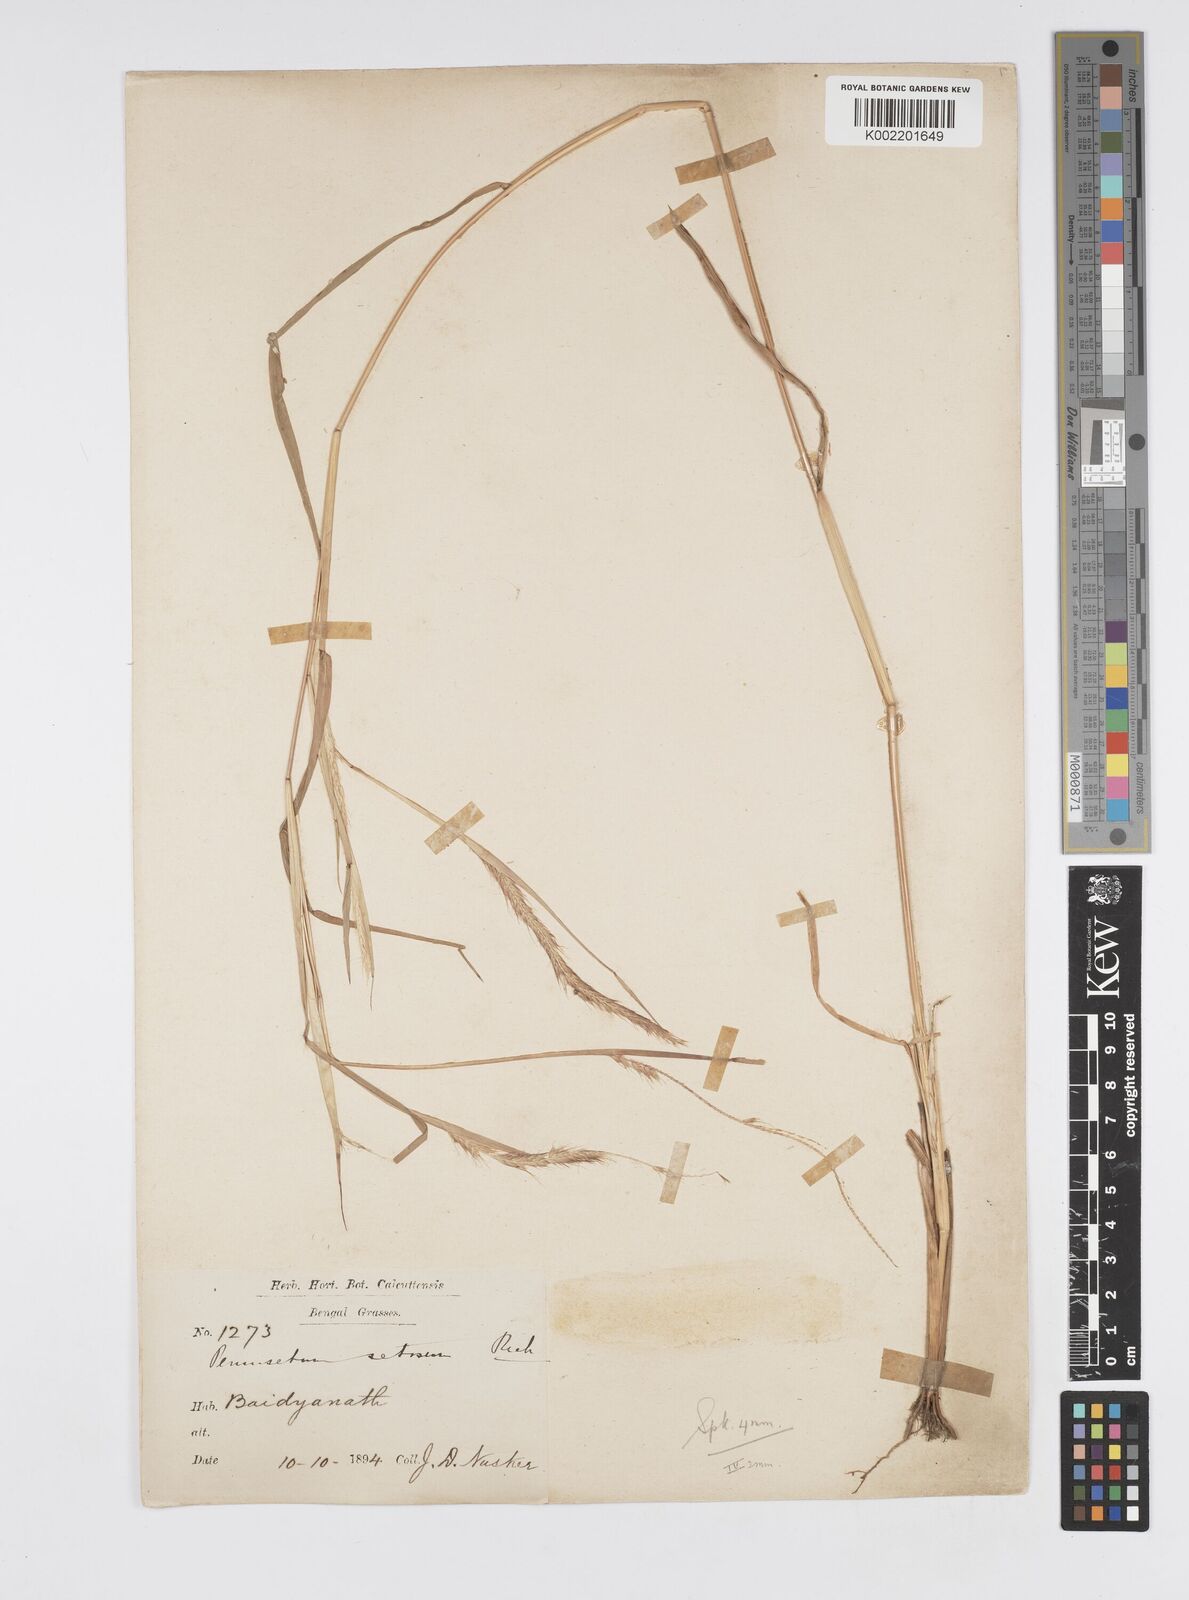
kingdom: Plantae
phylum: Tracheophyta
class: Liliopsida
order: Poales
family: Poaceae
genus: Setaria
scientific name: Setaria parviflora
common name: Knotroot bristle-grass
